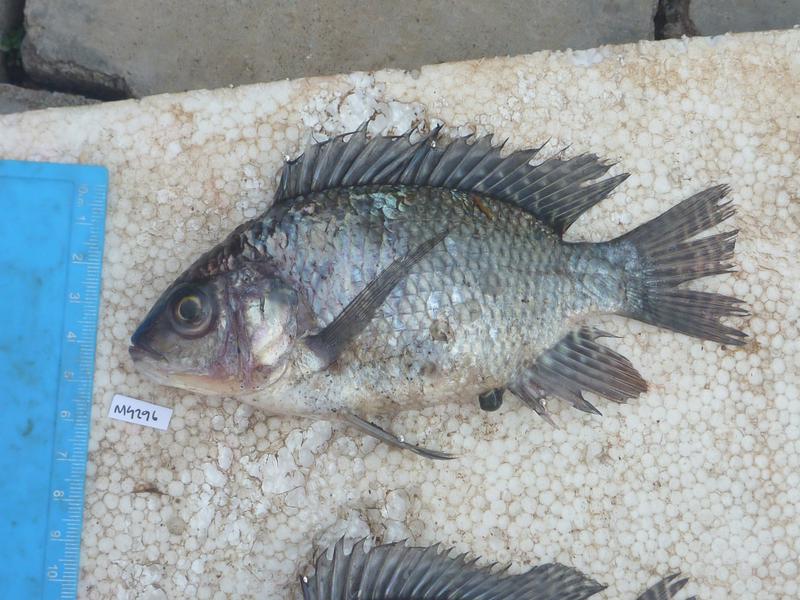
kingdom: Animalia
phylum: Chordata
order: Perciformes
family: Cichlidae
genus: Oreochromis
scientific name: Oreochromis niloticus
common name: Nile tilapia
